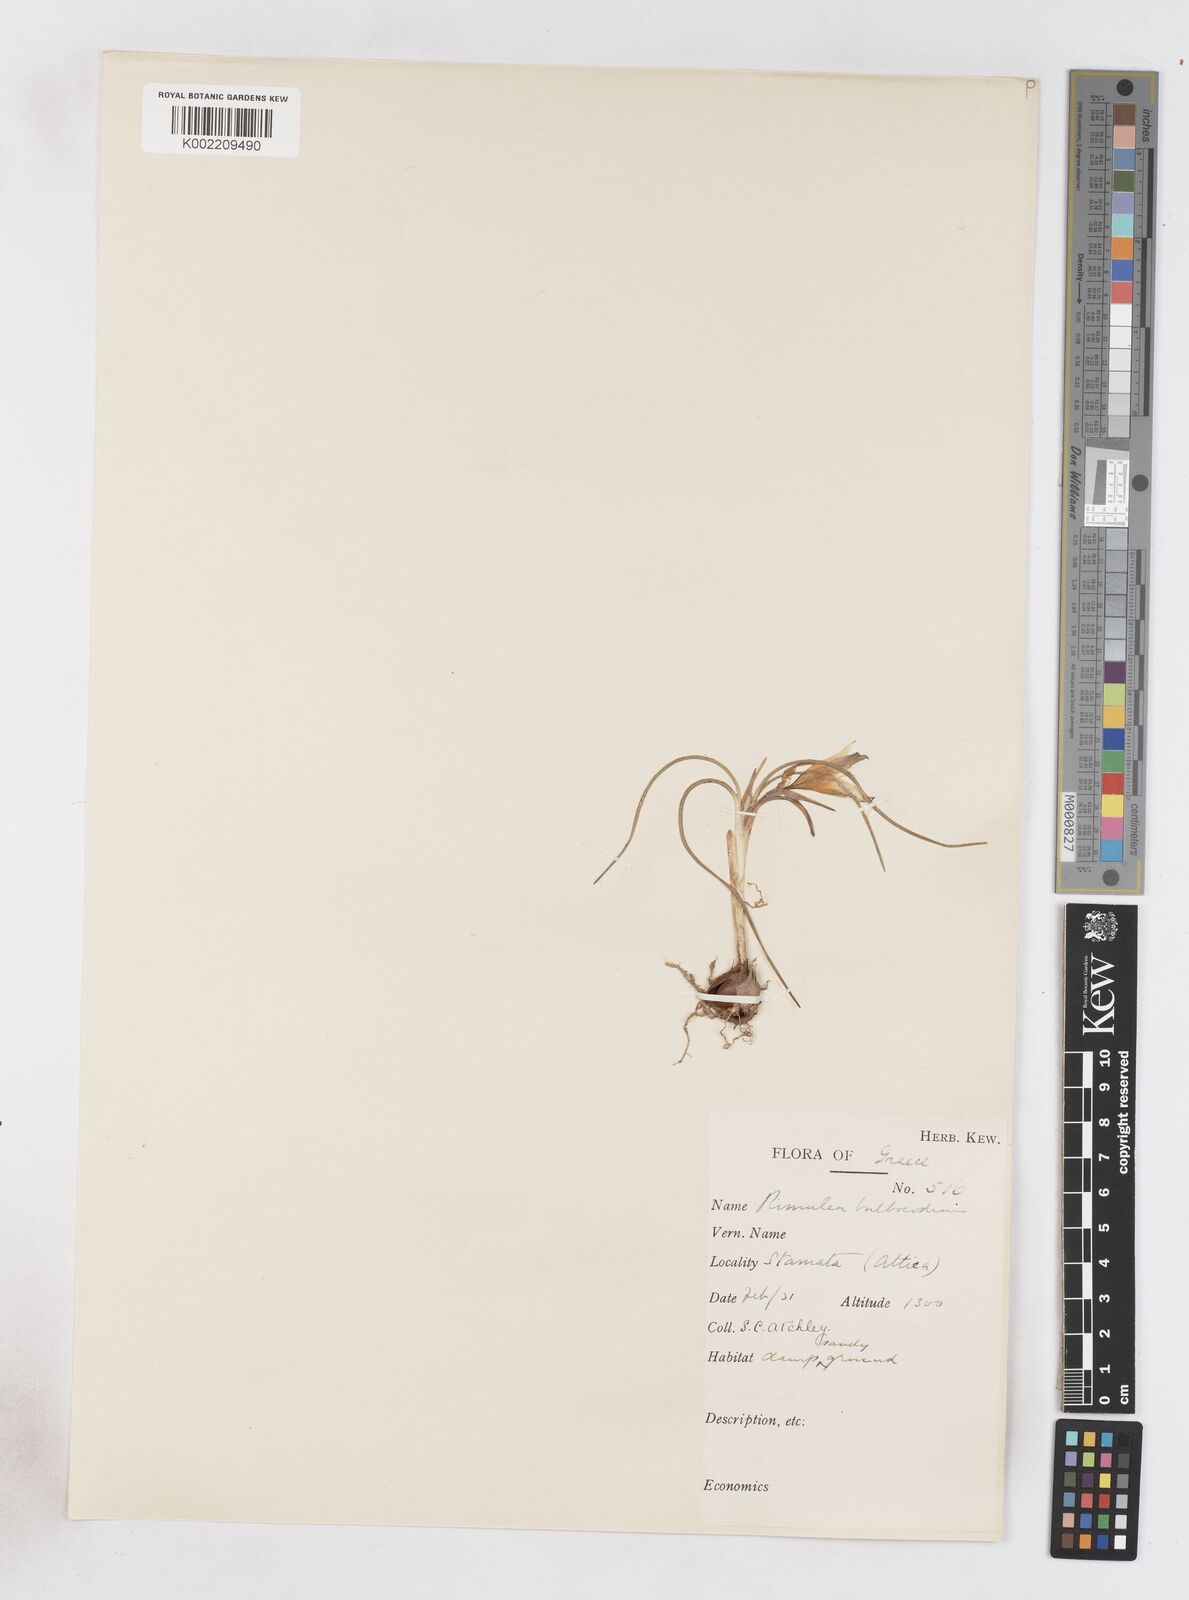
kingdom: Plantae
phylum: Tracheophyta
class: Liliopsida
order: Asparagales
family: Iridaceae
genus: Romulea
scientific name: Romulea bulbocodium
